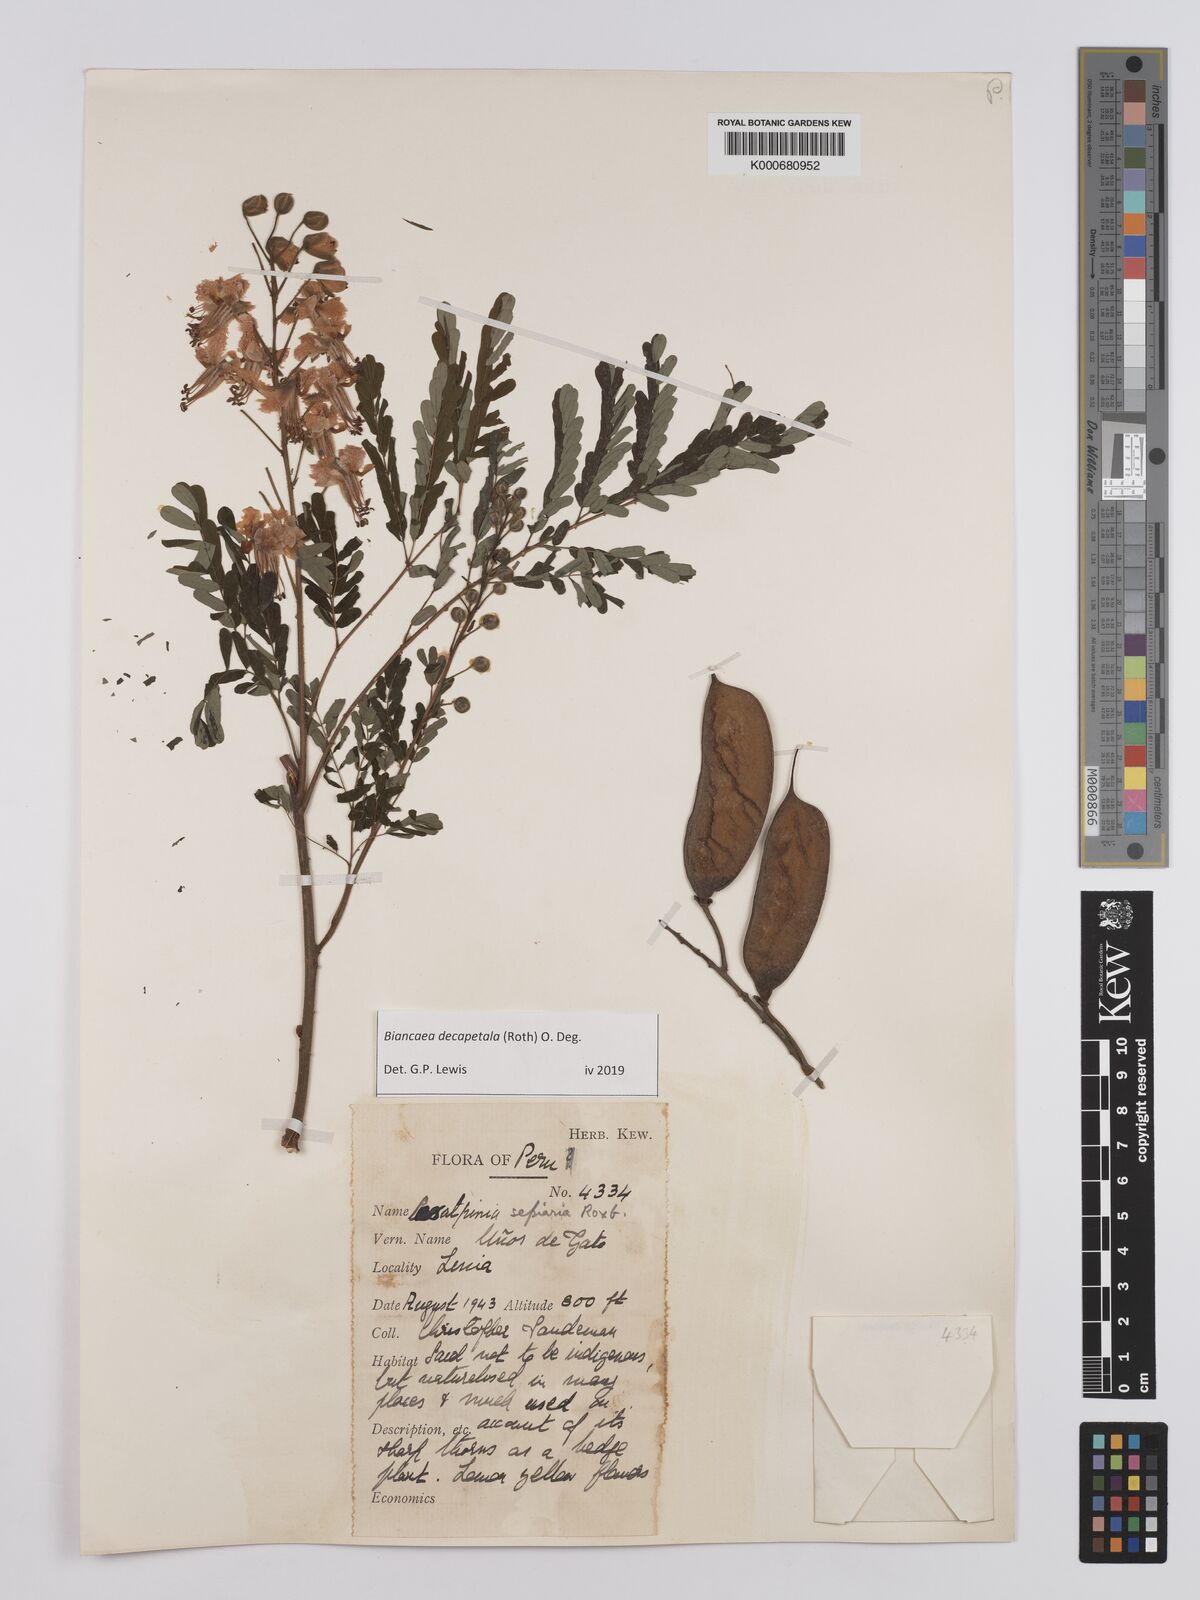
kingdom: Plantae
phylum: Tracheophyta
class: Magnoliopsida
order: Fabales
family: Fabaceae
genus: Biancaea
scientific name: Biancaea decapetala
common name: Cat's claw
